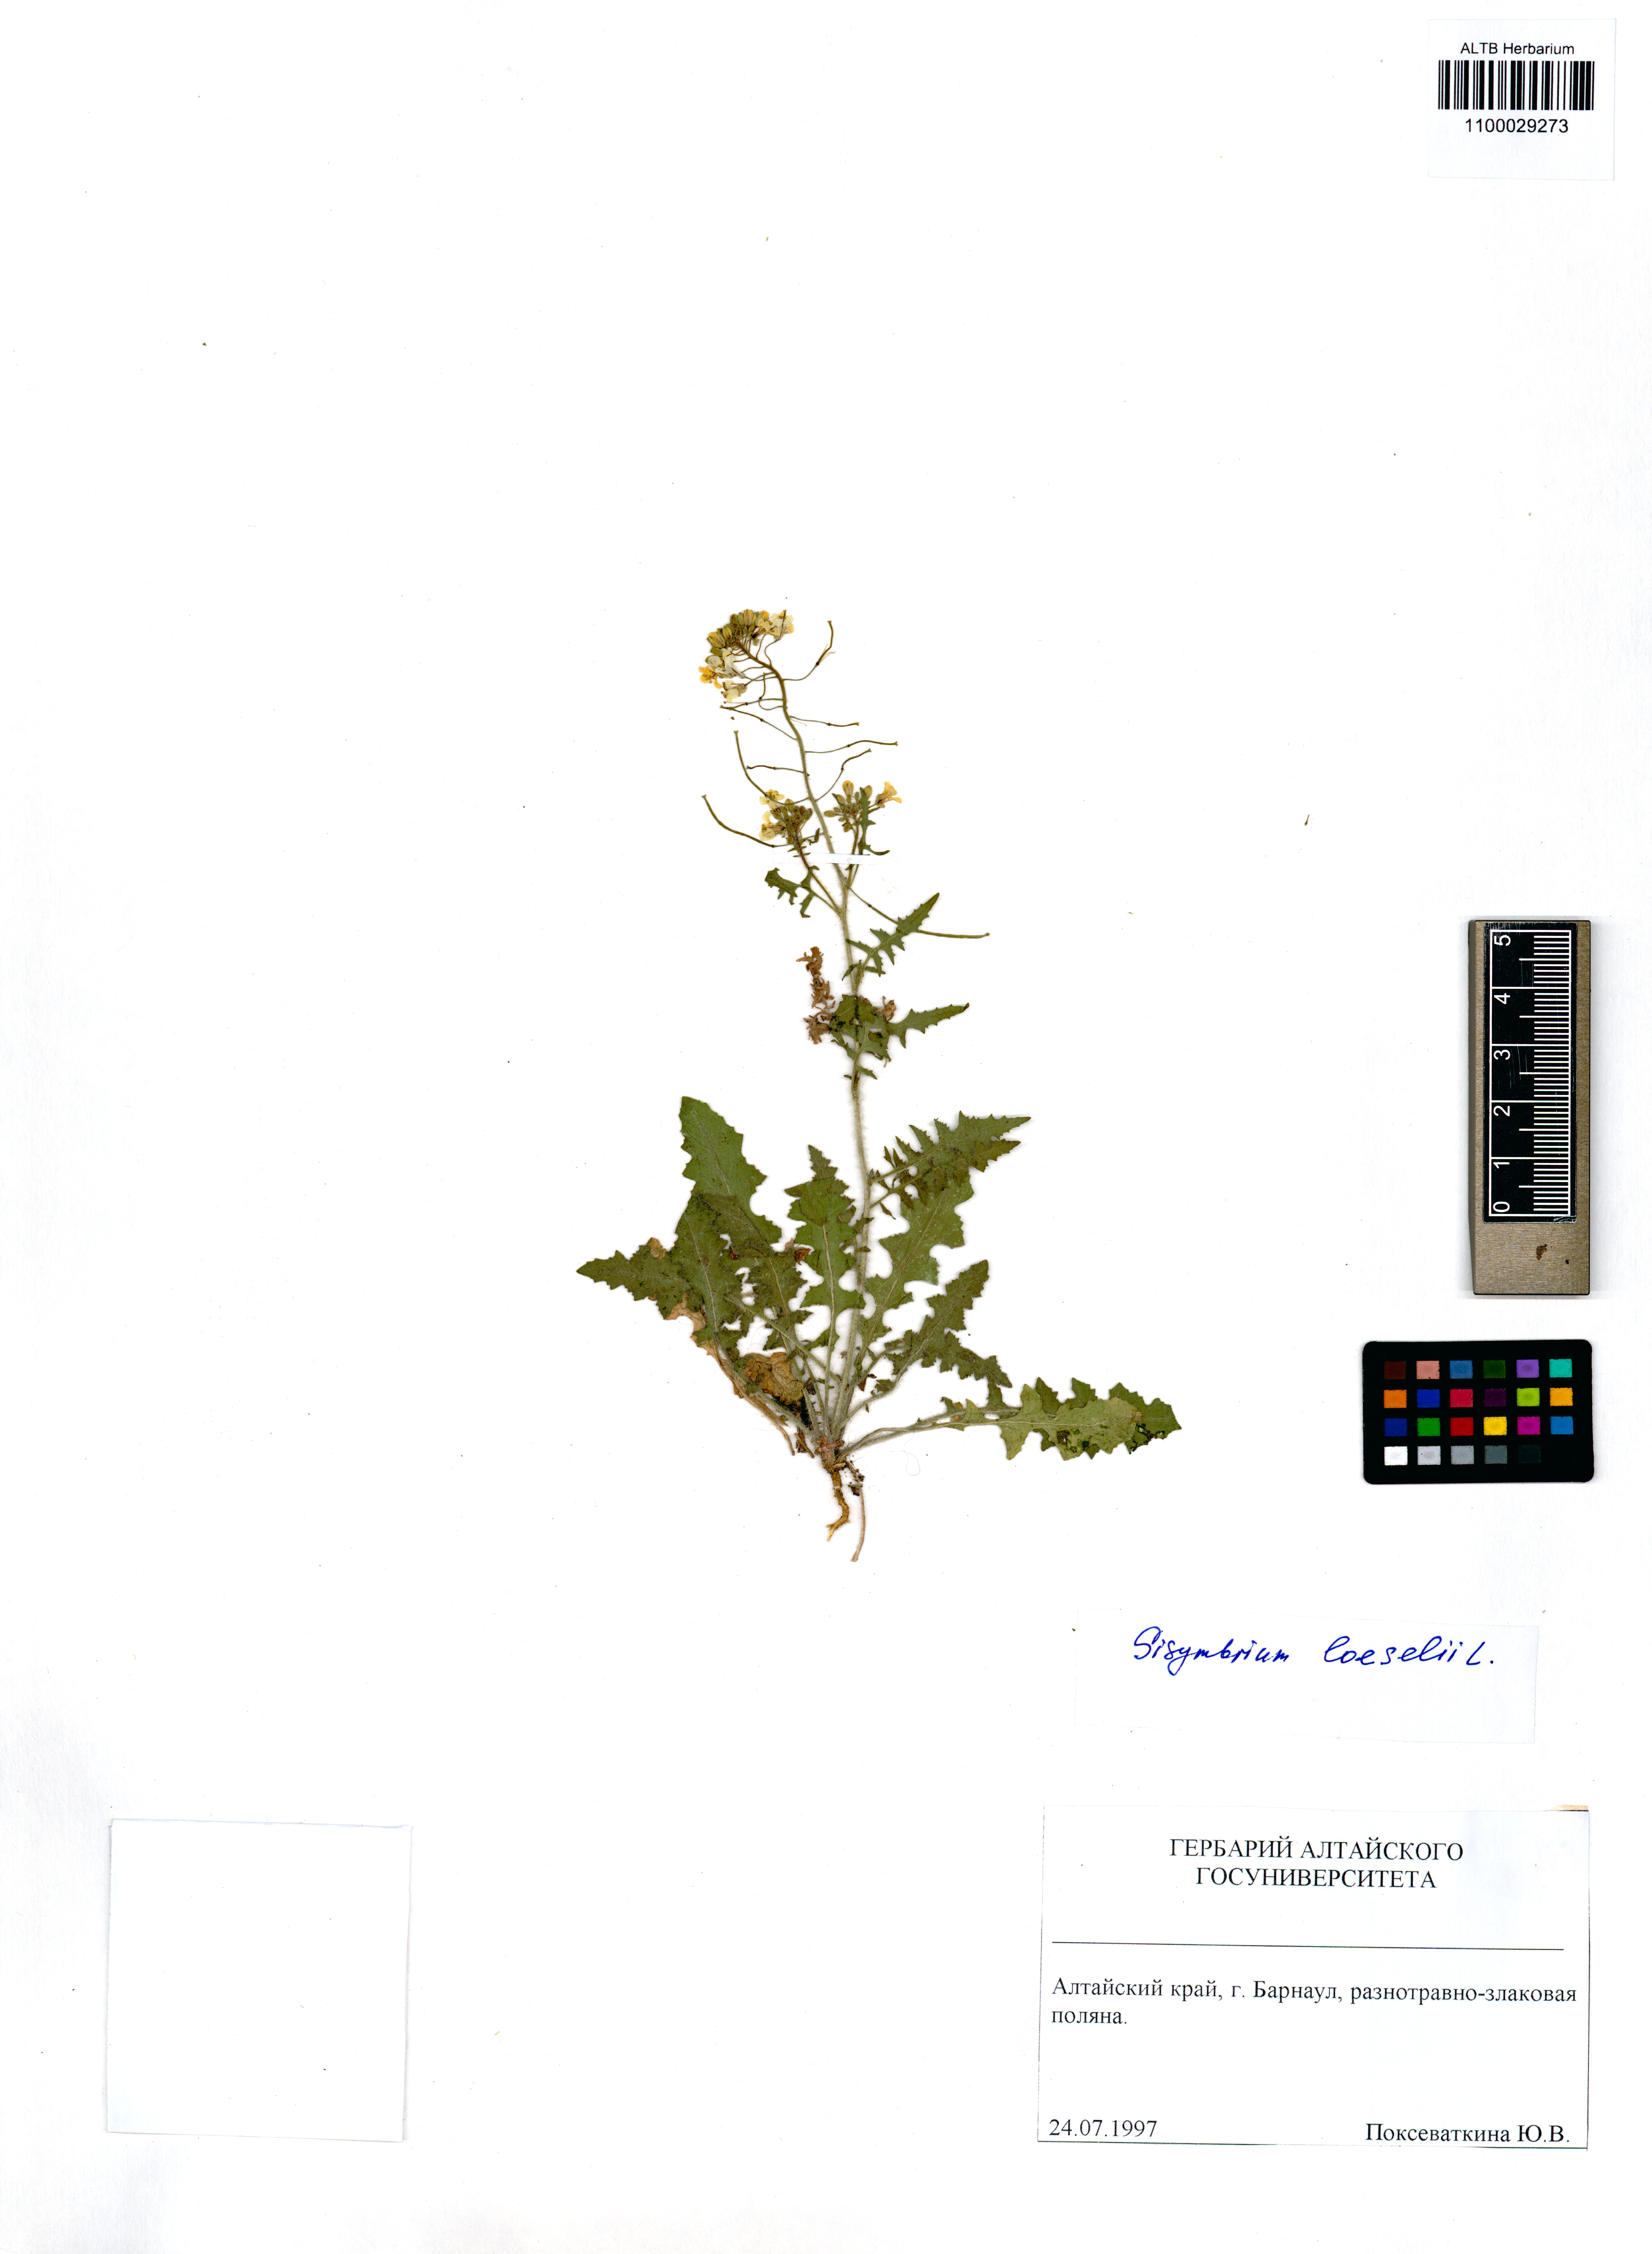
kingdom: Plantae
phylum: Tracheophyta
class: Magnoliopsida
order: Brassicales
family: Brassicaceae
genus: Sisymbrium
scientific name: Sisymbrium loeselii
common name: False london-rocket
